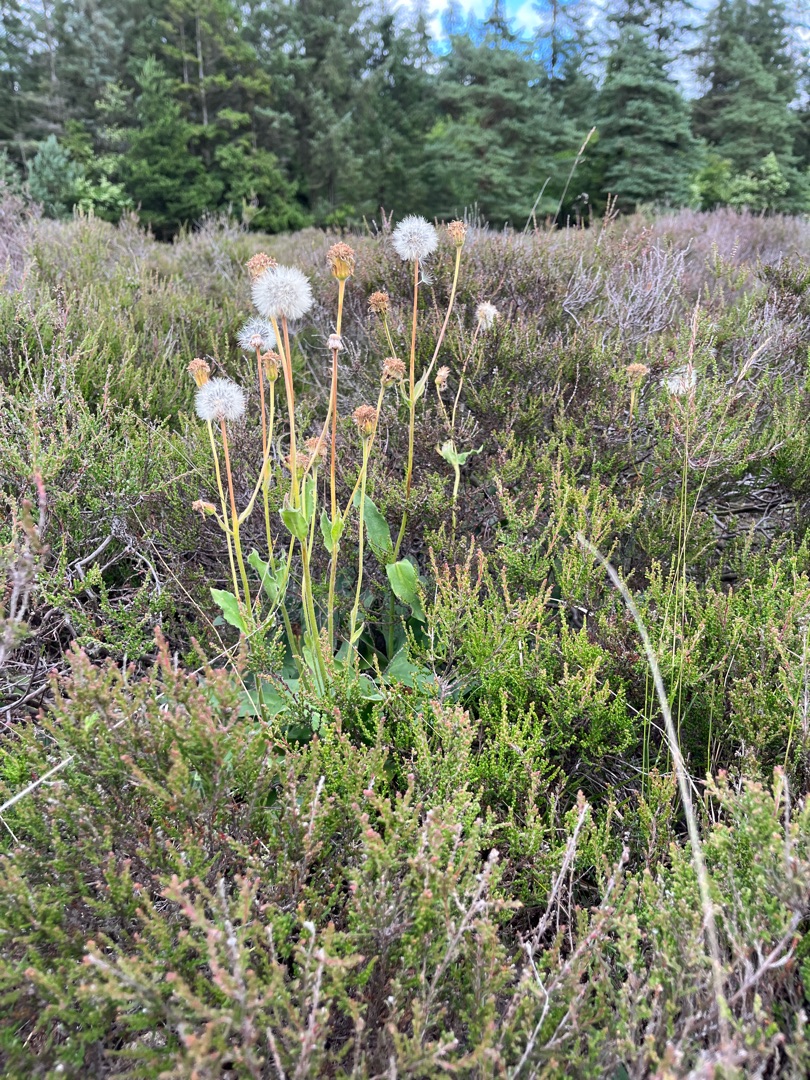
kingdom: Plantae
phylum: Tracheophyta
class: Magnoliopsida
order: Asterales
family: Asteraceae
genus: Arnica
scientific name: Arnica montana
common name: Guldblomme
